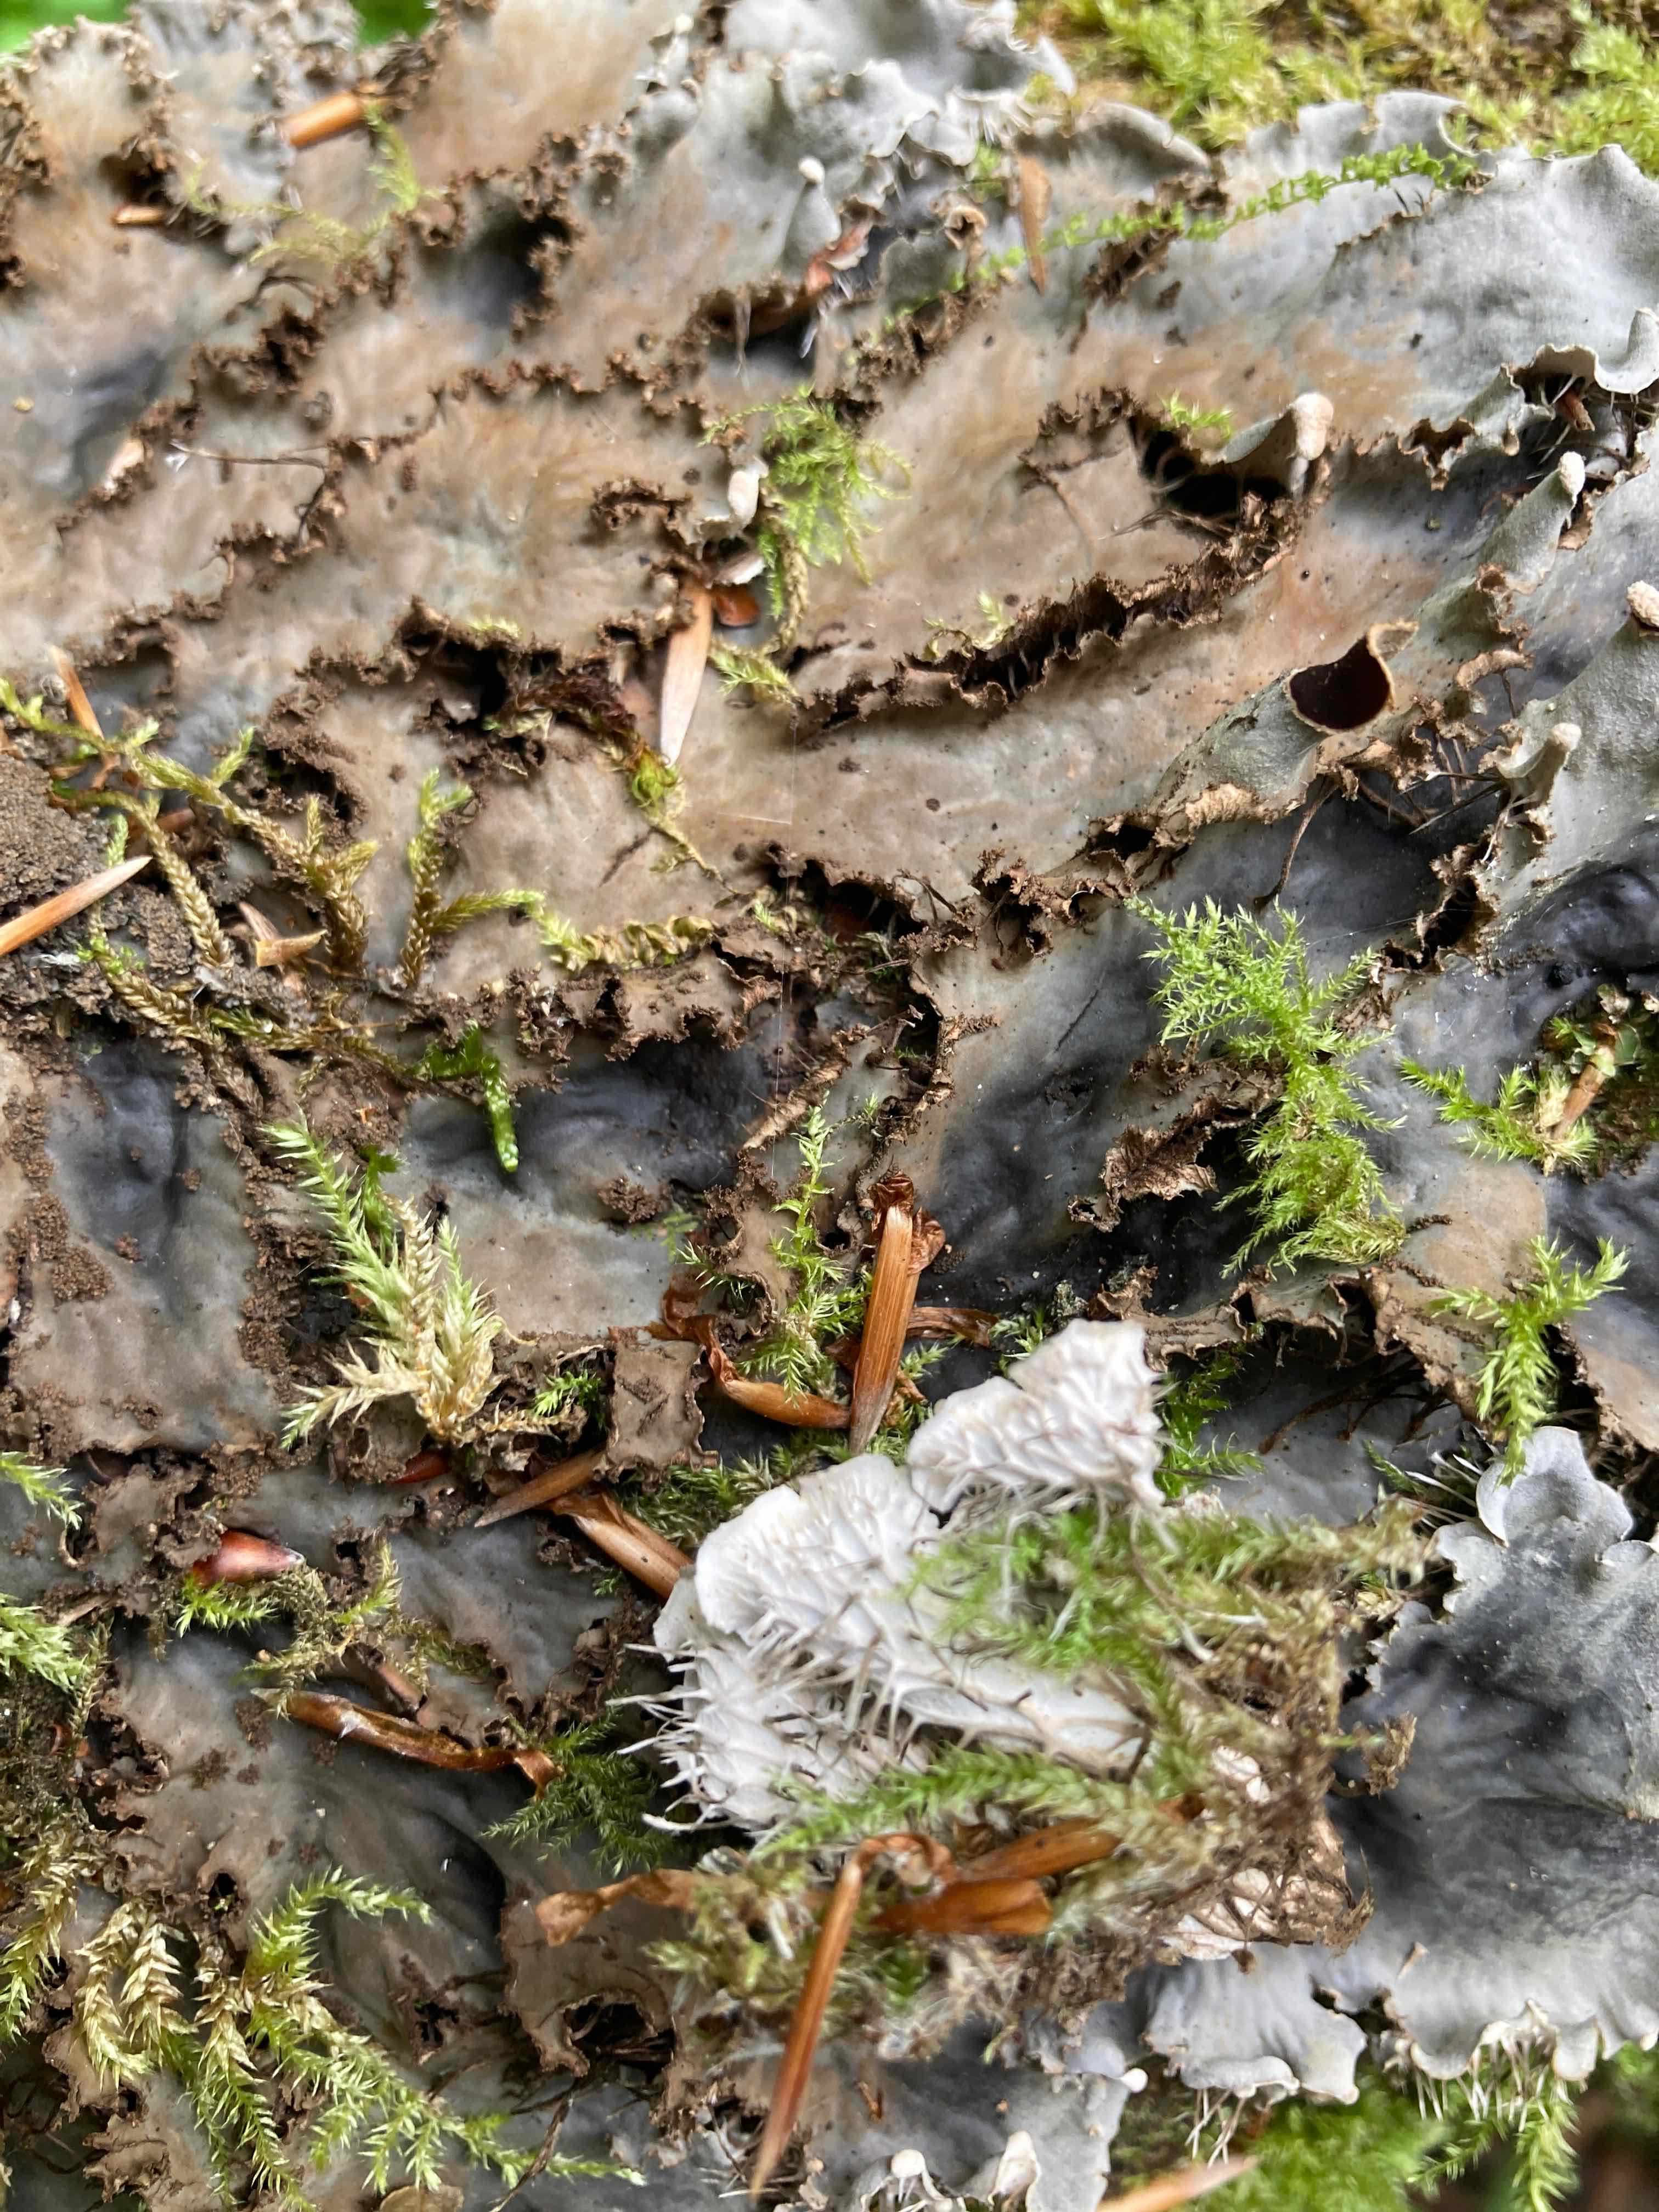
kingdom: Fungi
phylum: Ascomycota
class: Lecanoromycetes
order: Peltigerales
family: Peltigeraceae
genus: Peltigera
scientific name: Peltigera praetextata
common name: kruset skjoldlav
